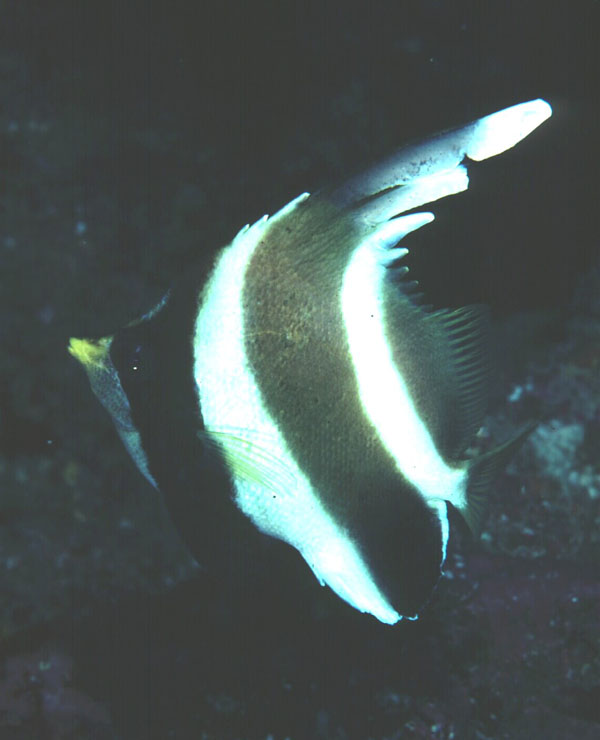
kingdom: Animalia
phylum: Chordata
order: Perciformes
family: Chaetodontidae
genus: Heniochus
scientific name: Heniochus chrysostomus
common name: Horned bannerfish
